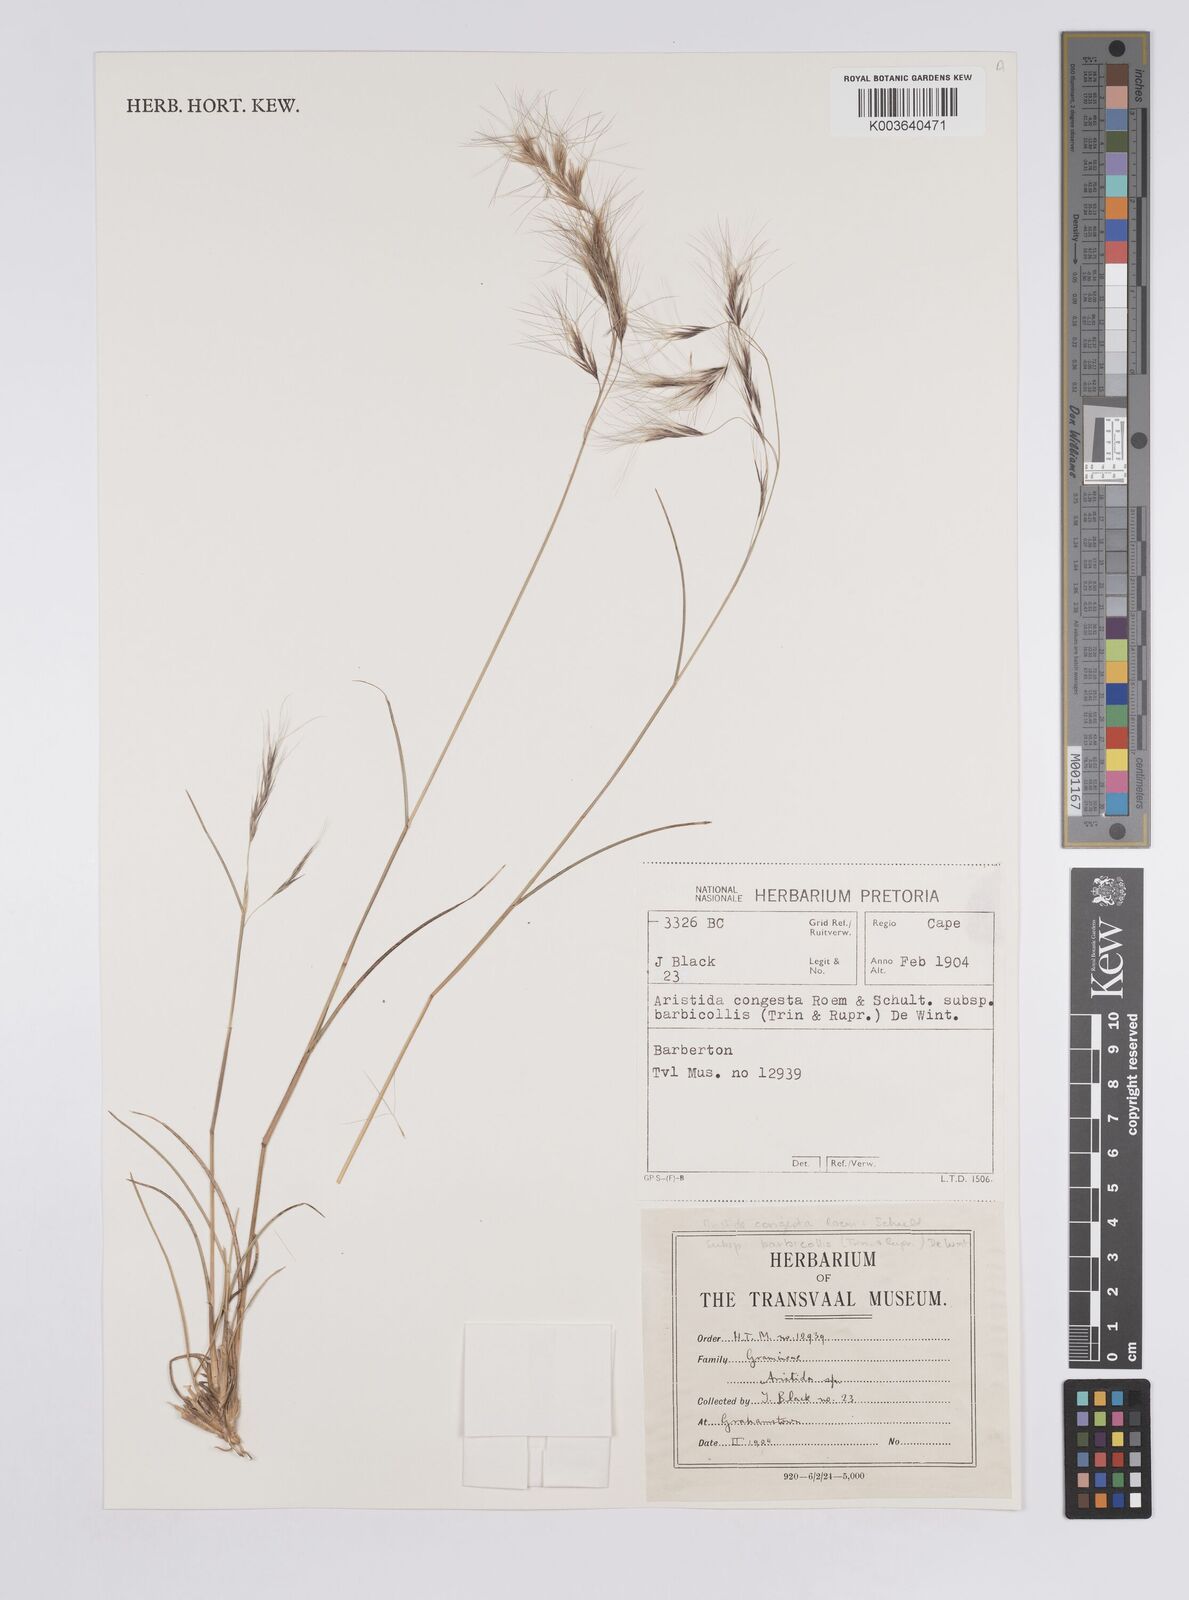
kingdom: Plantae
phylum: Tracheophyta
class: Liliopsida
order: Poales
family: Poaceae
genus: Aristida
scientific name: Aristida barbicollis
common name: Spreading prickle grass
